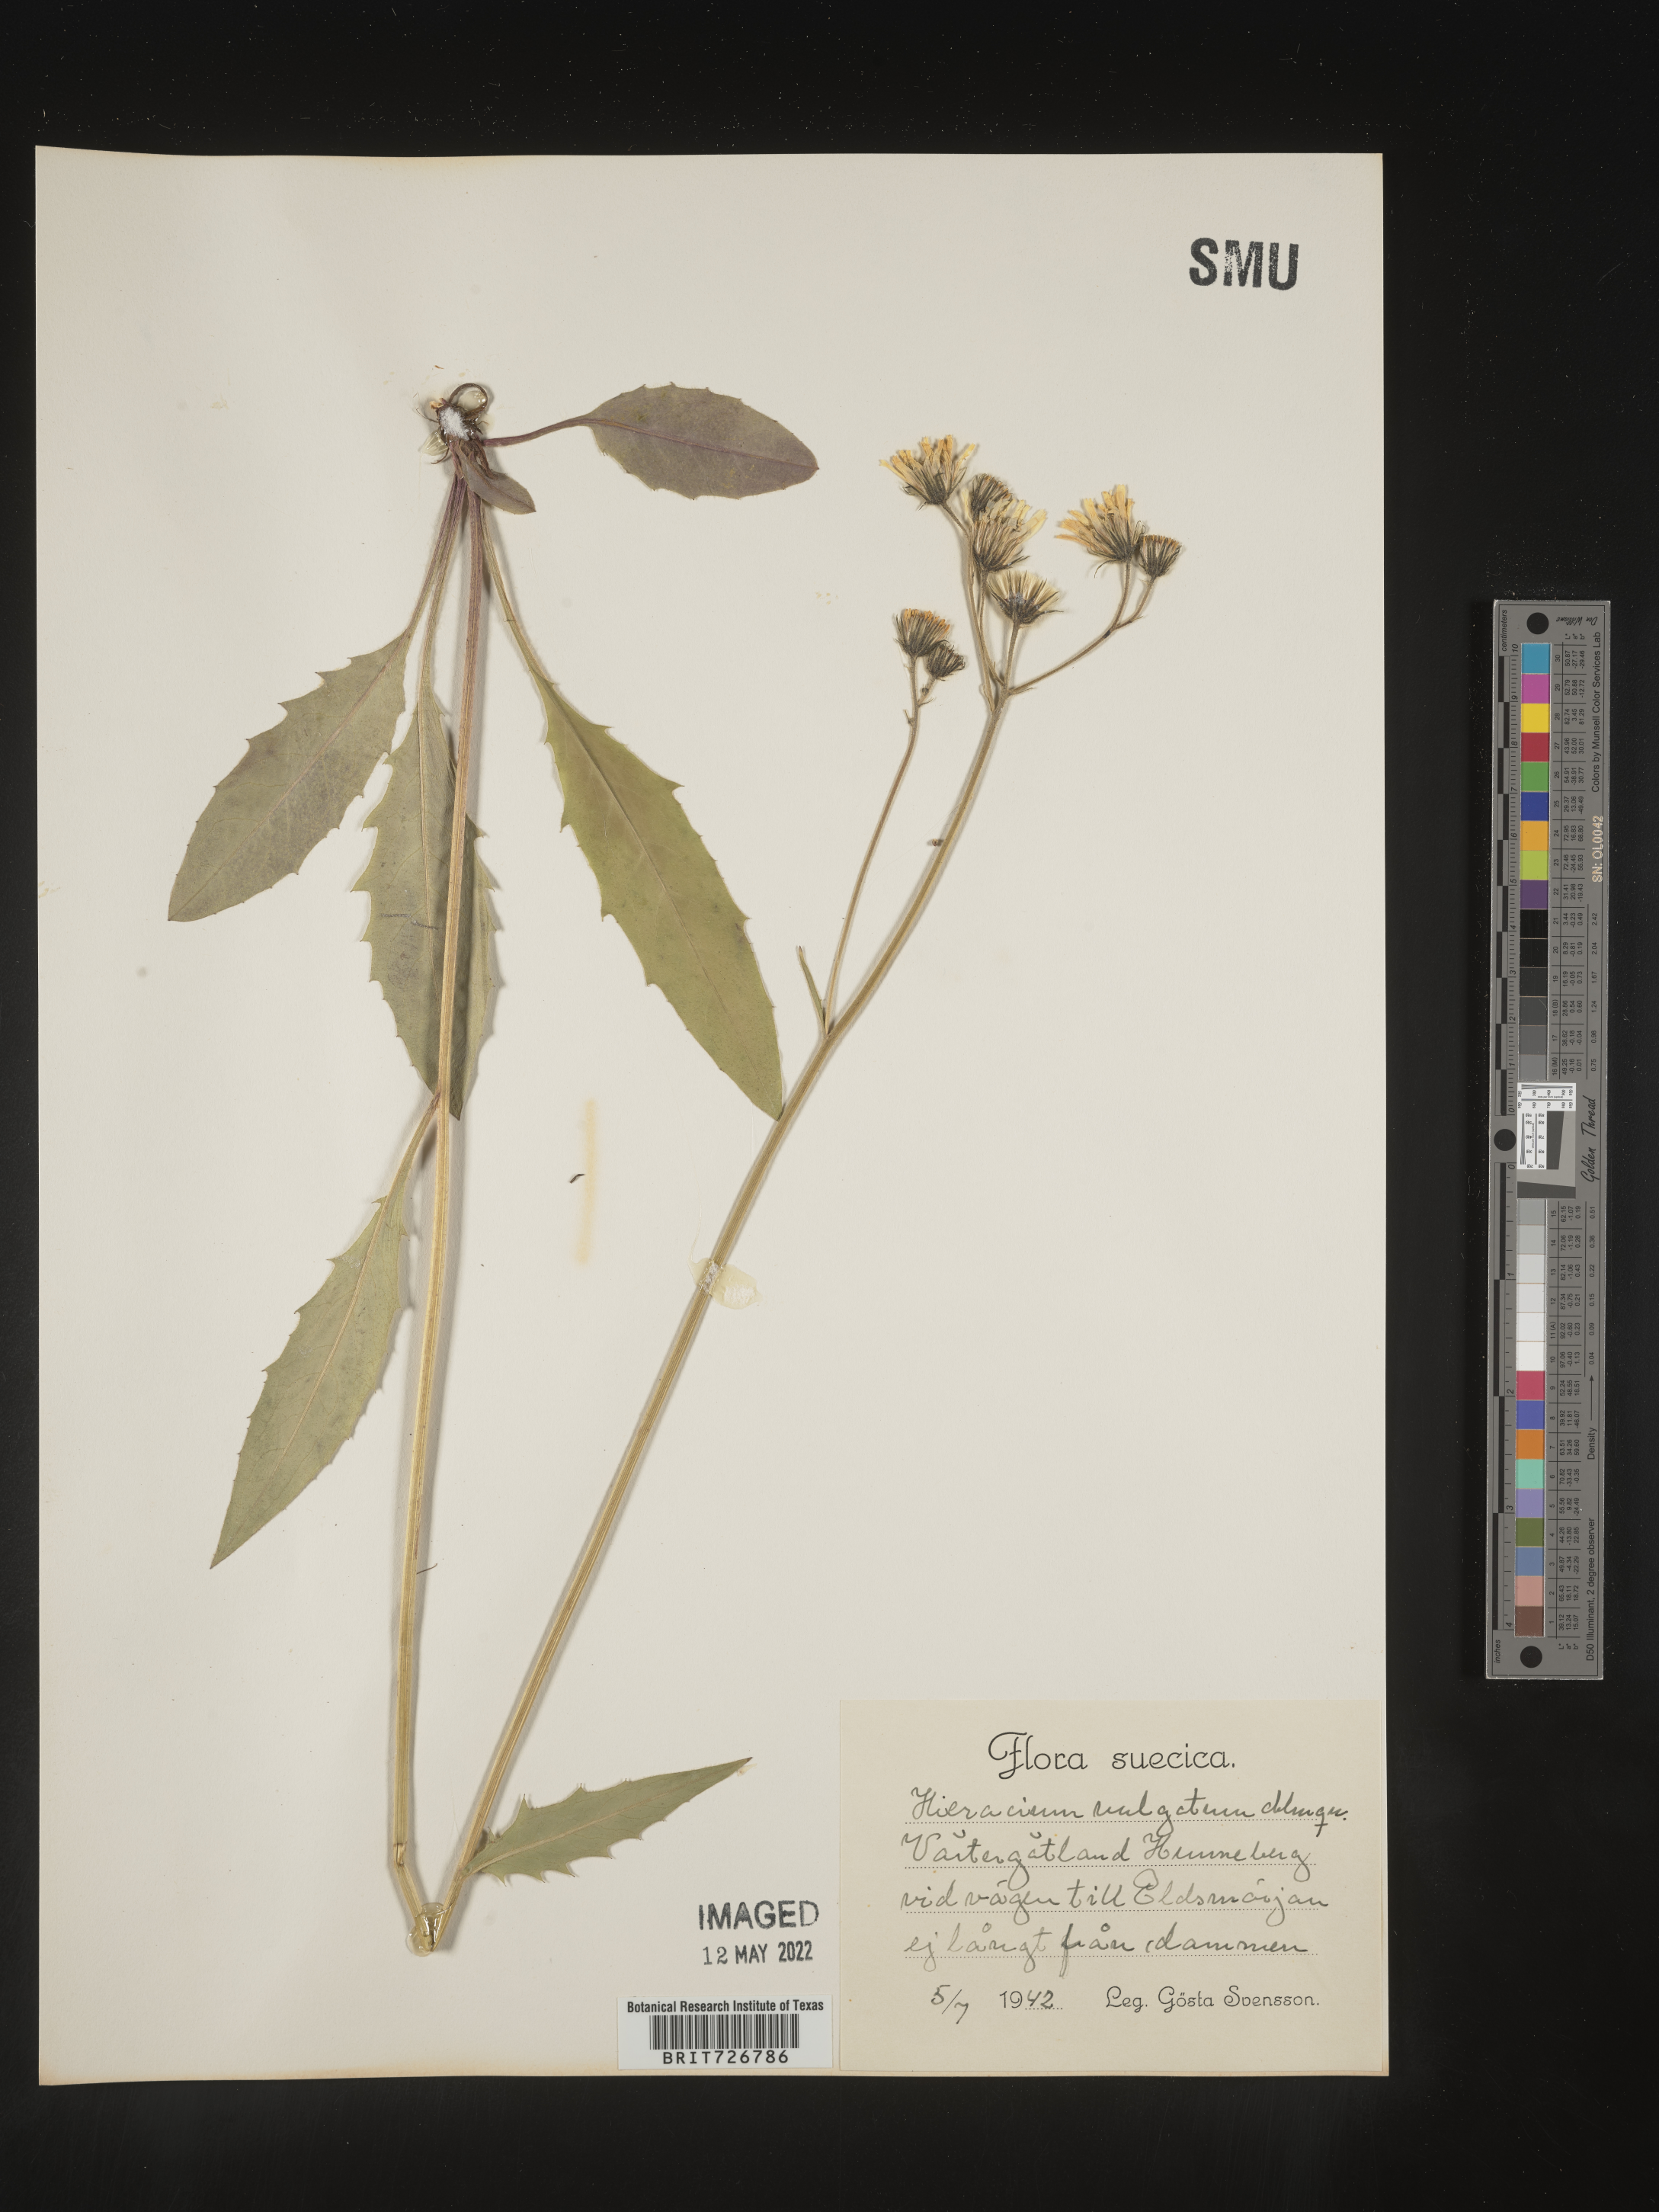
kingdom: Plantae
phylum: Tracheophyta
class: Magnoliopsida
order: Asterales
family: Asteraceae
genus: Hieracium
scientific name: Hieracium
